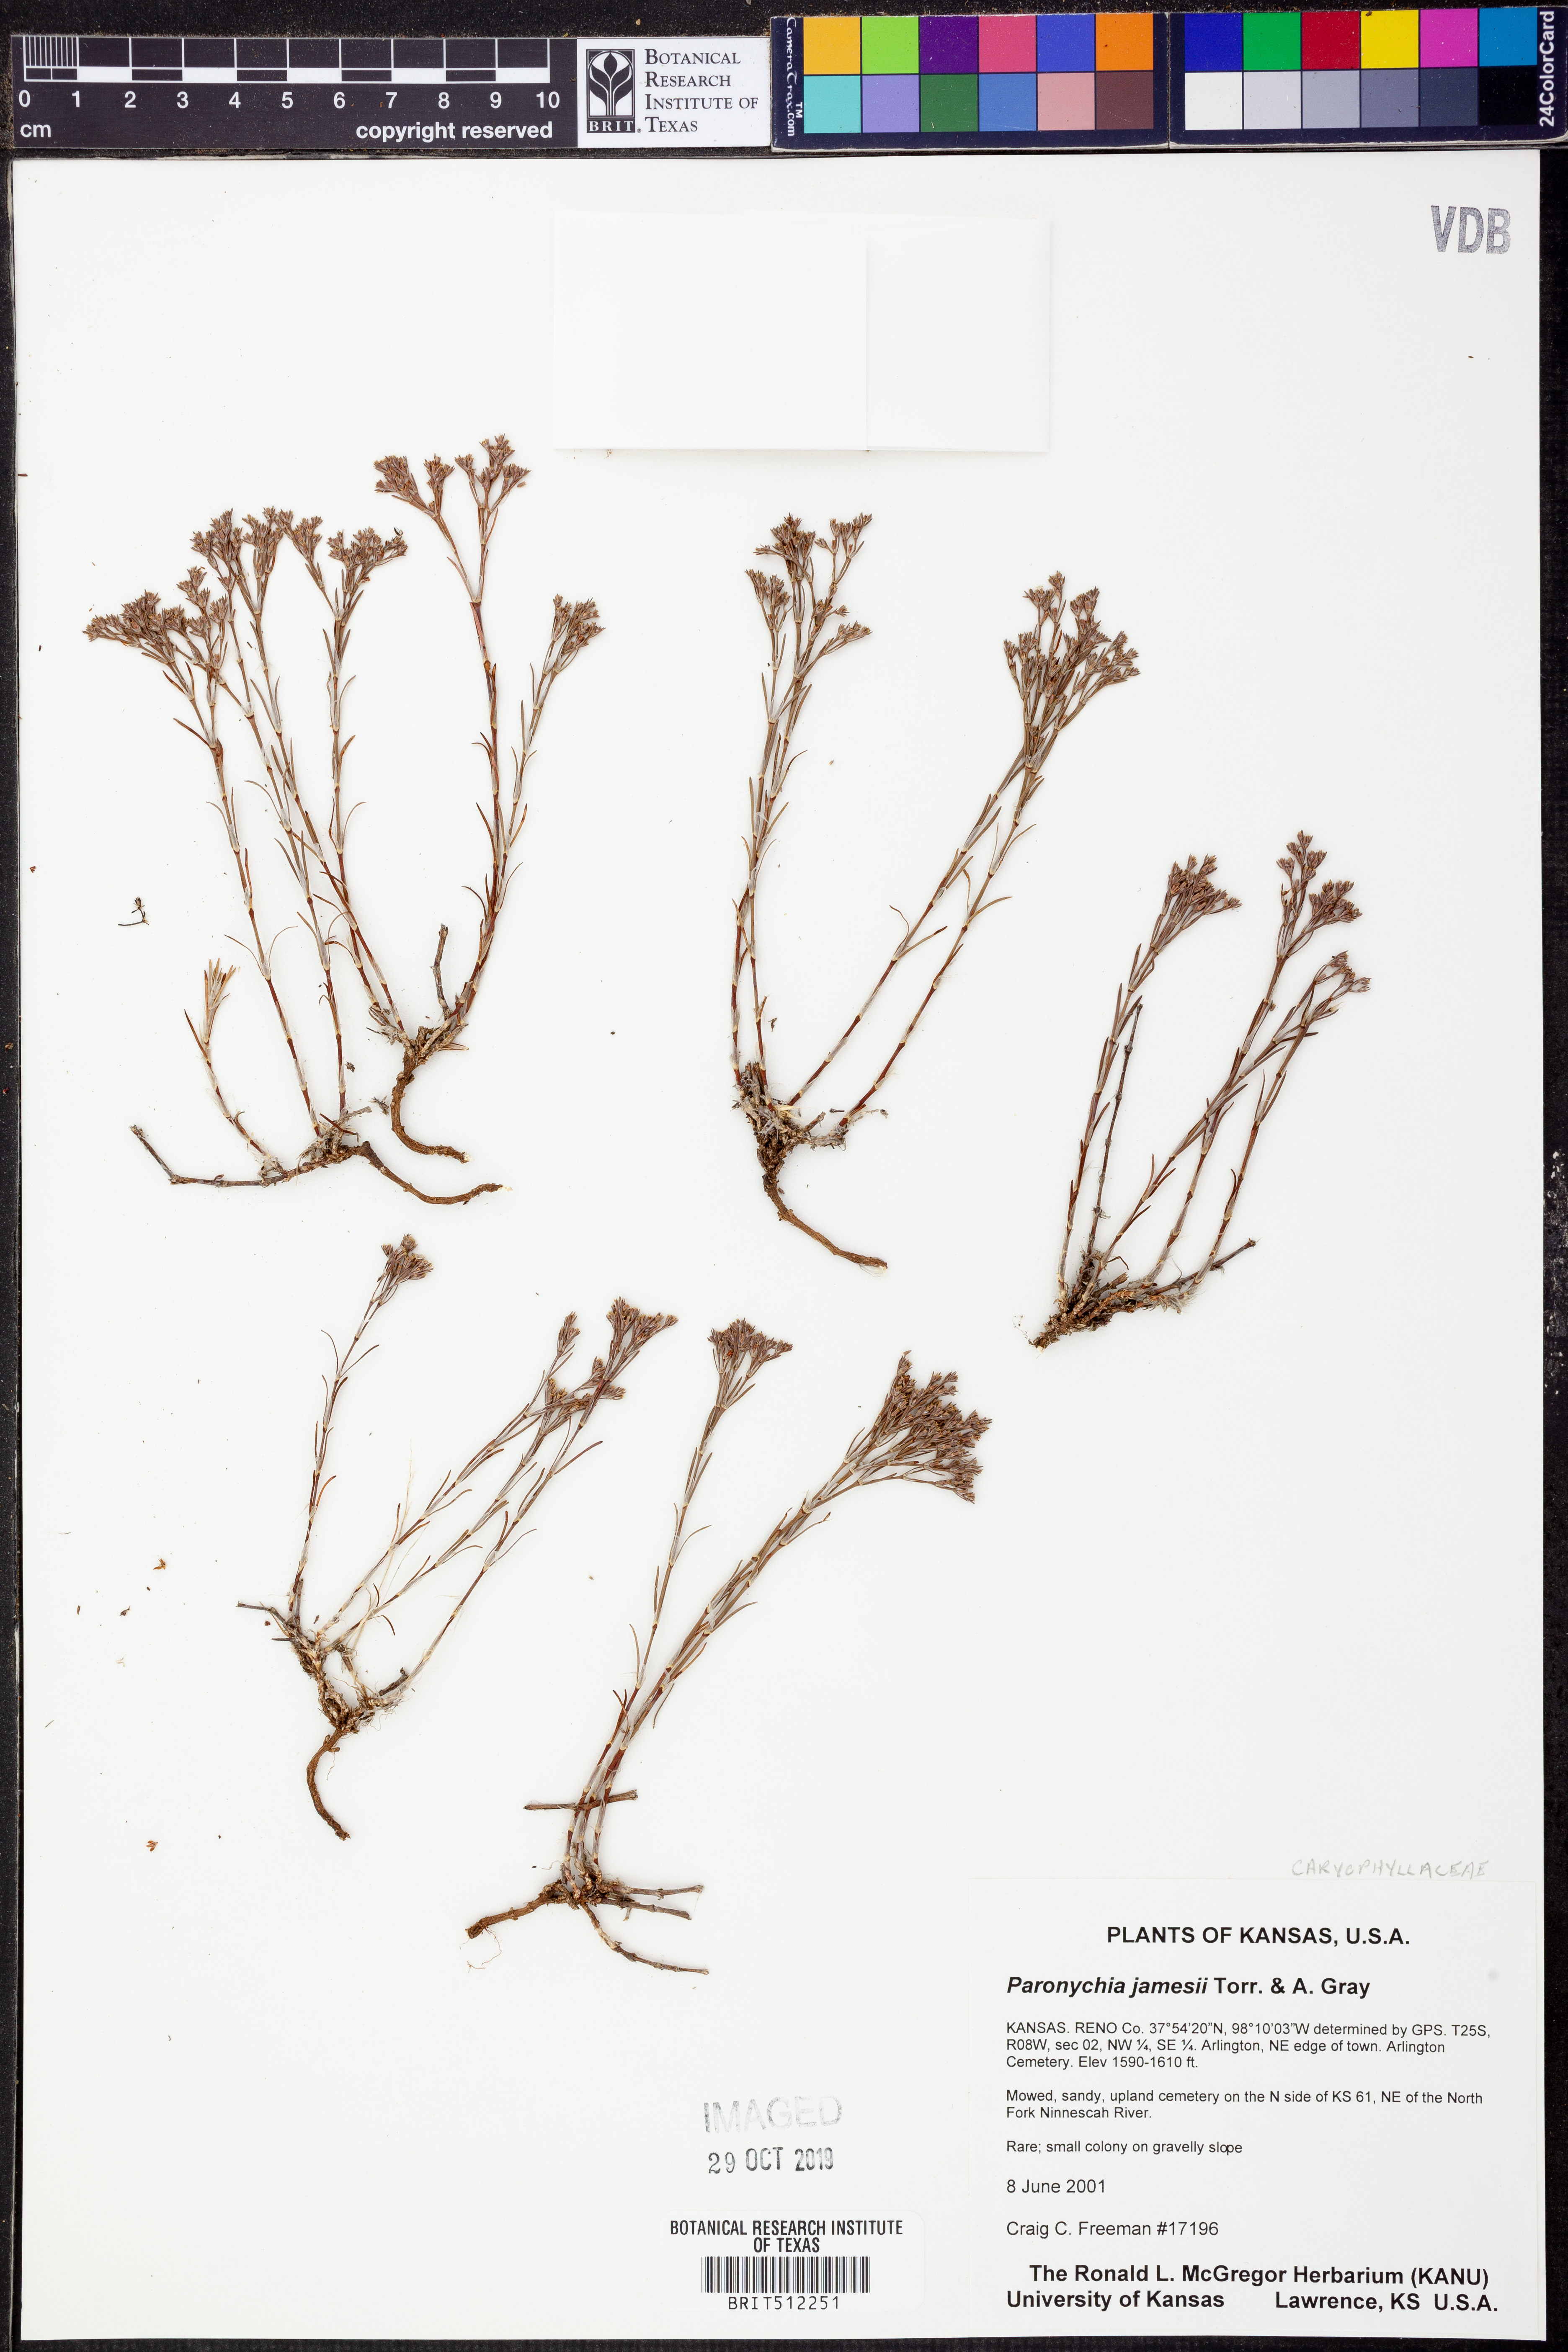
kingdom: Plantae
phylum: Tracheophyta
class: Magnoliopsida
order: Caryophyllales
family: Caryophyllaceae
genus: Paronychia
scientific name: Paronychia jamesii
